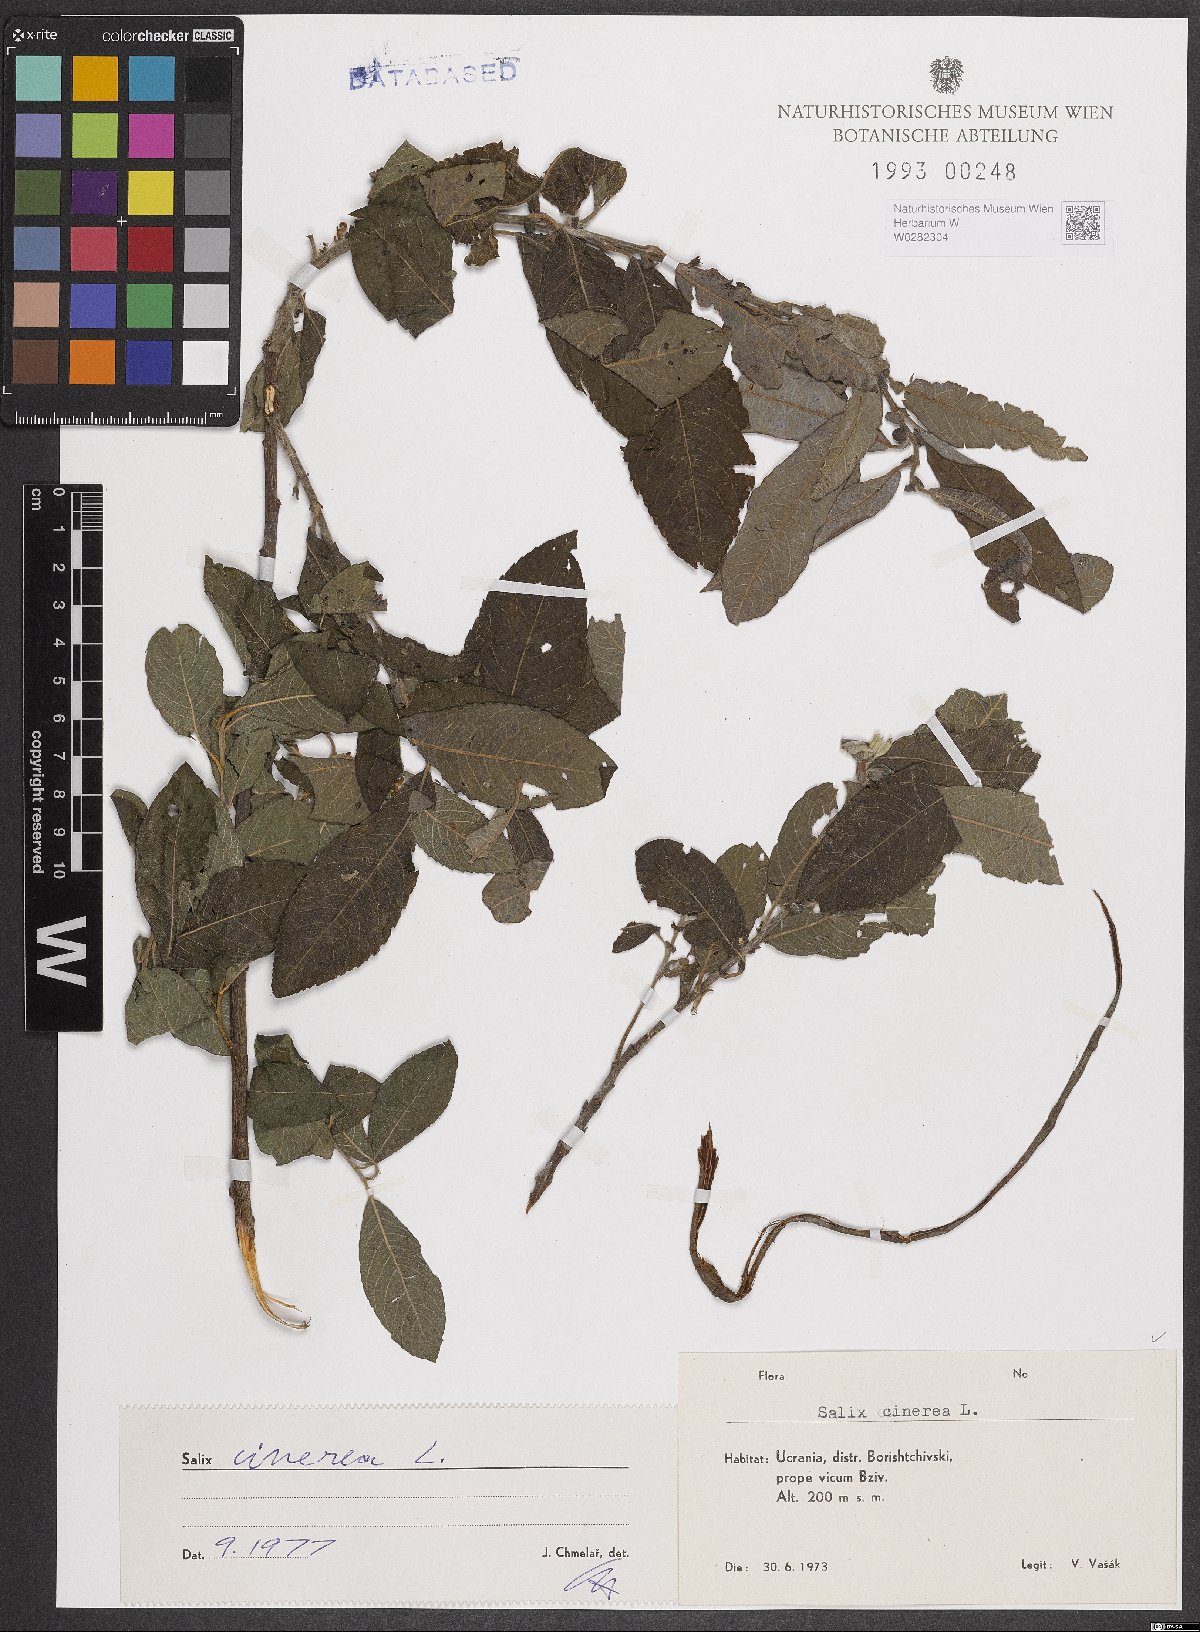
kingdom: Plantae
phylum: Tracheophyta
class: Magnoliopsida
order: Malpighiales
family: Salicaceae
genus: Salix
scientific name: Salix cinerea
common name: Common sallow
